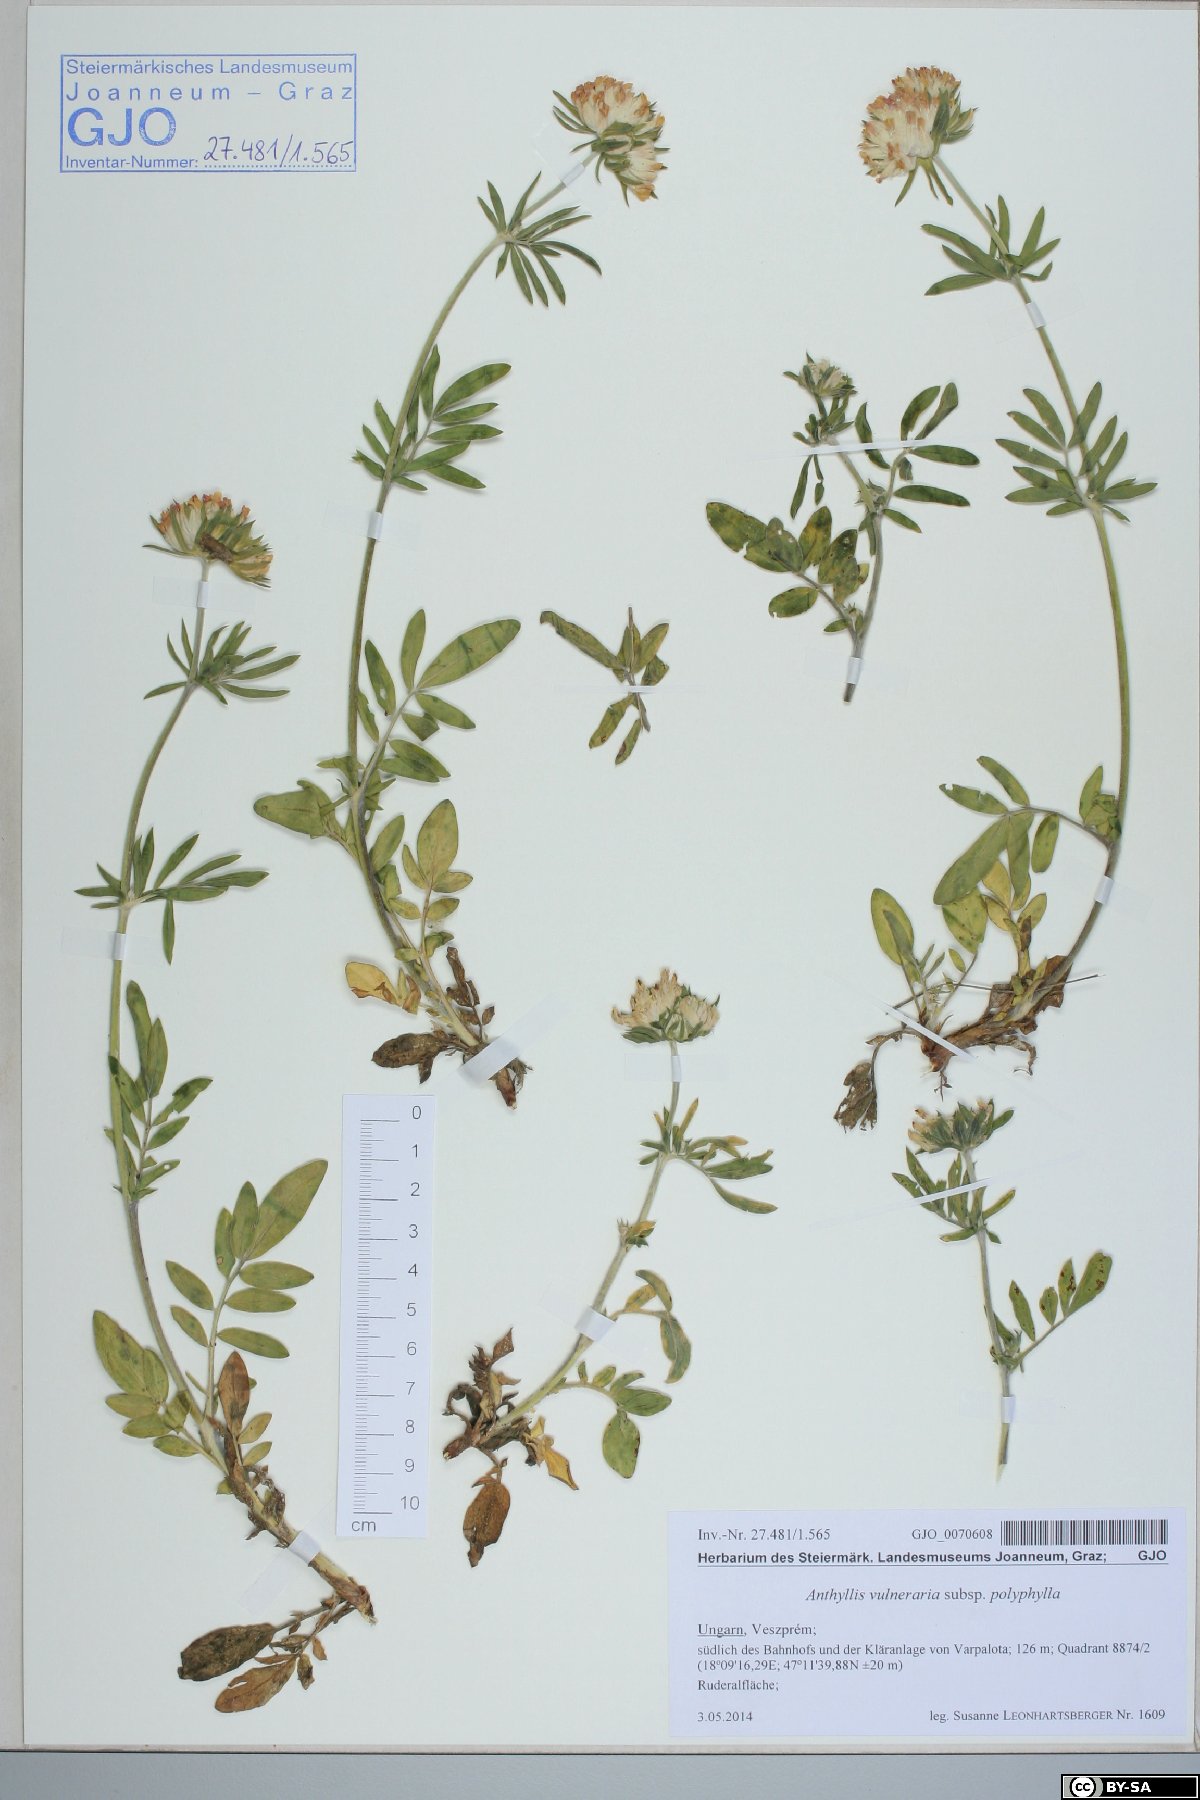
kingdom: Plantae
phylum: Tracheophyta
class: Magnoliopsida
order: Fabales
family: Fabaceae
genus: Anthyllis
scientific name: Anthyllis vulneraria
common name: Kidney vetch
